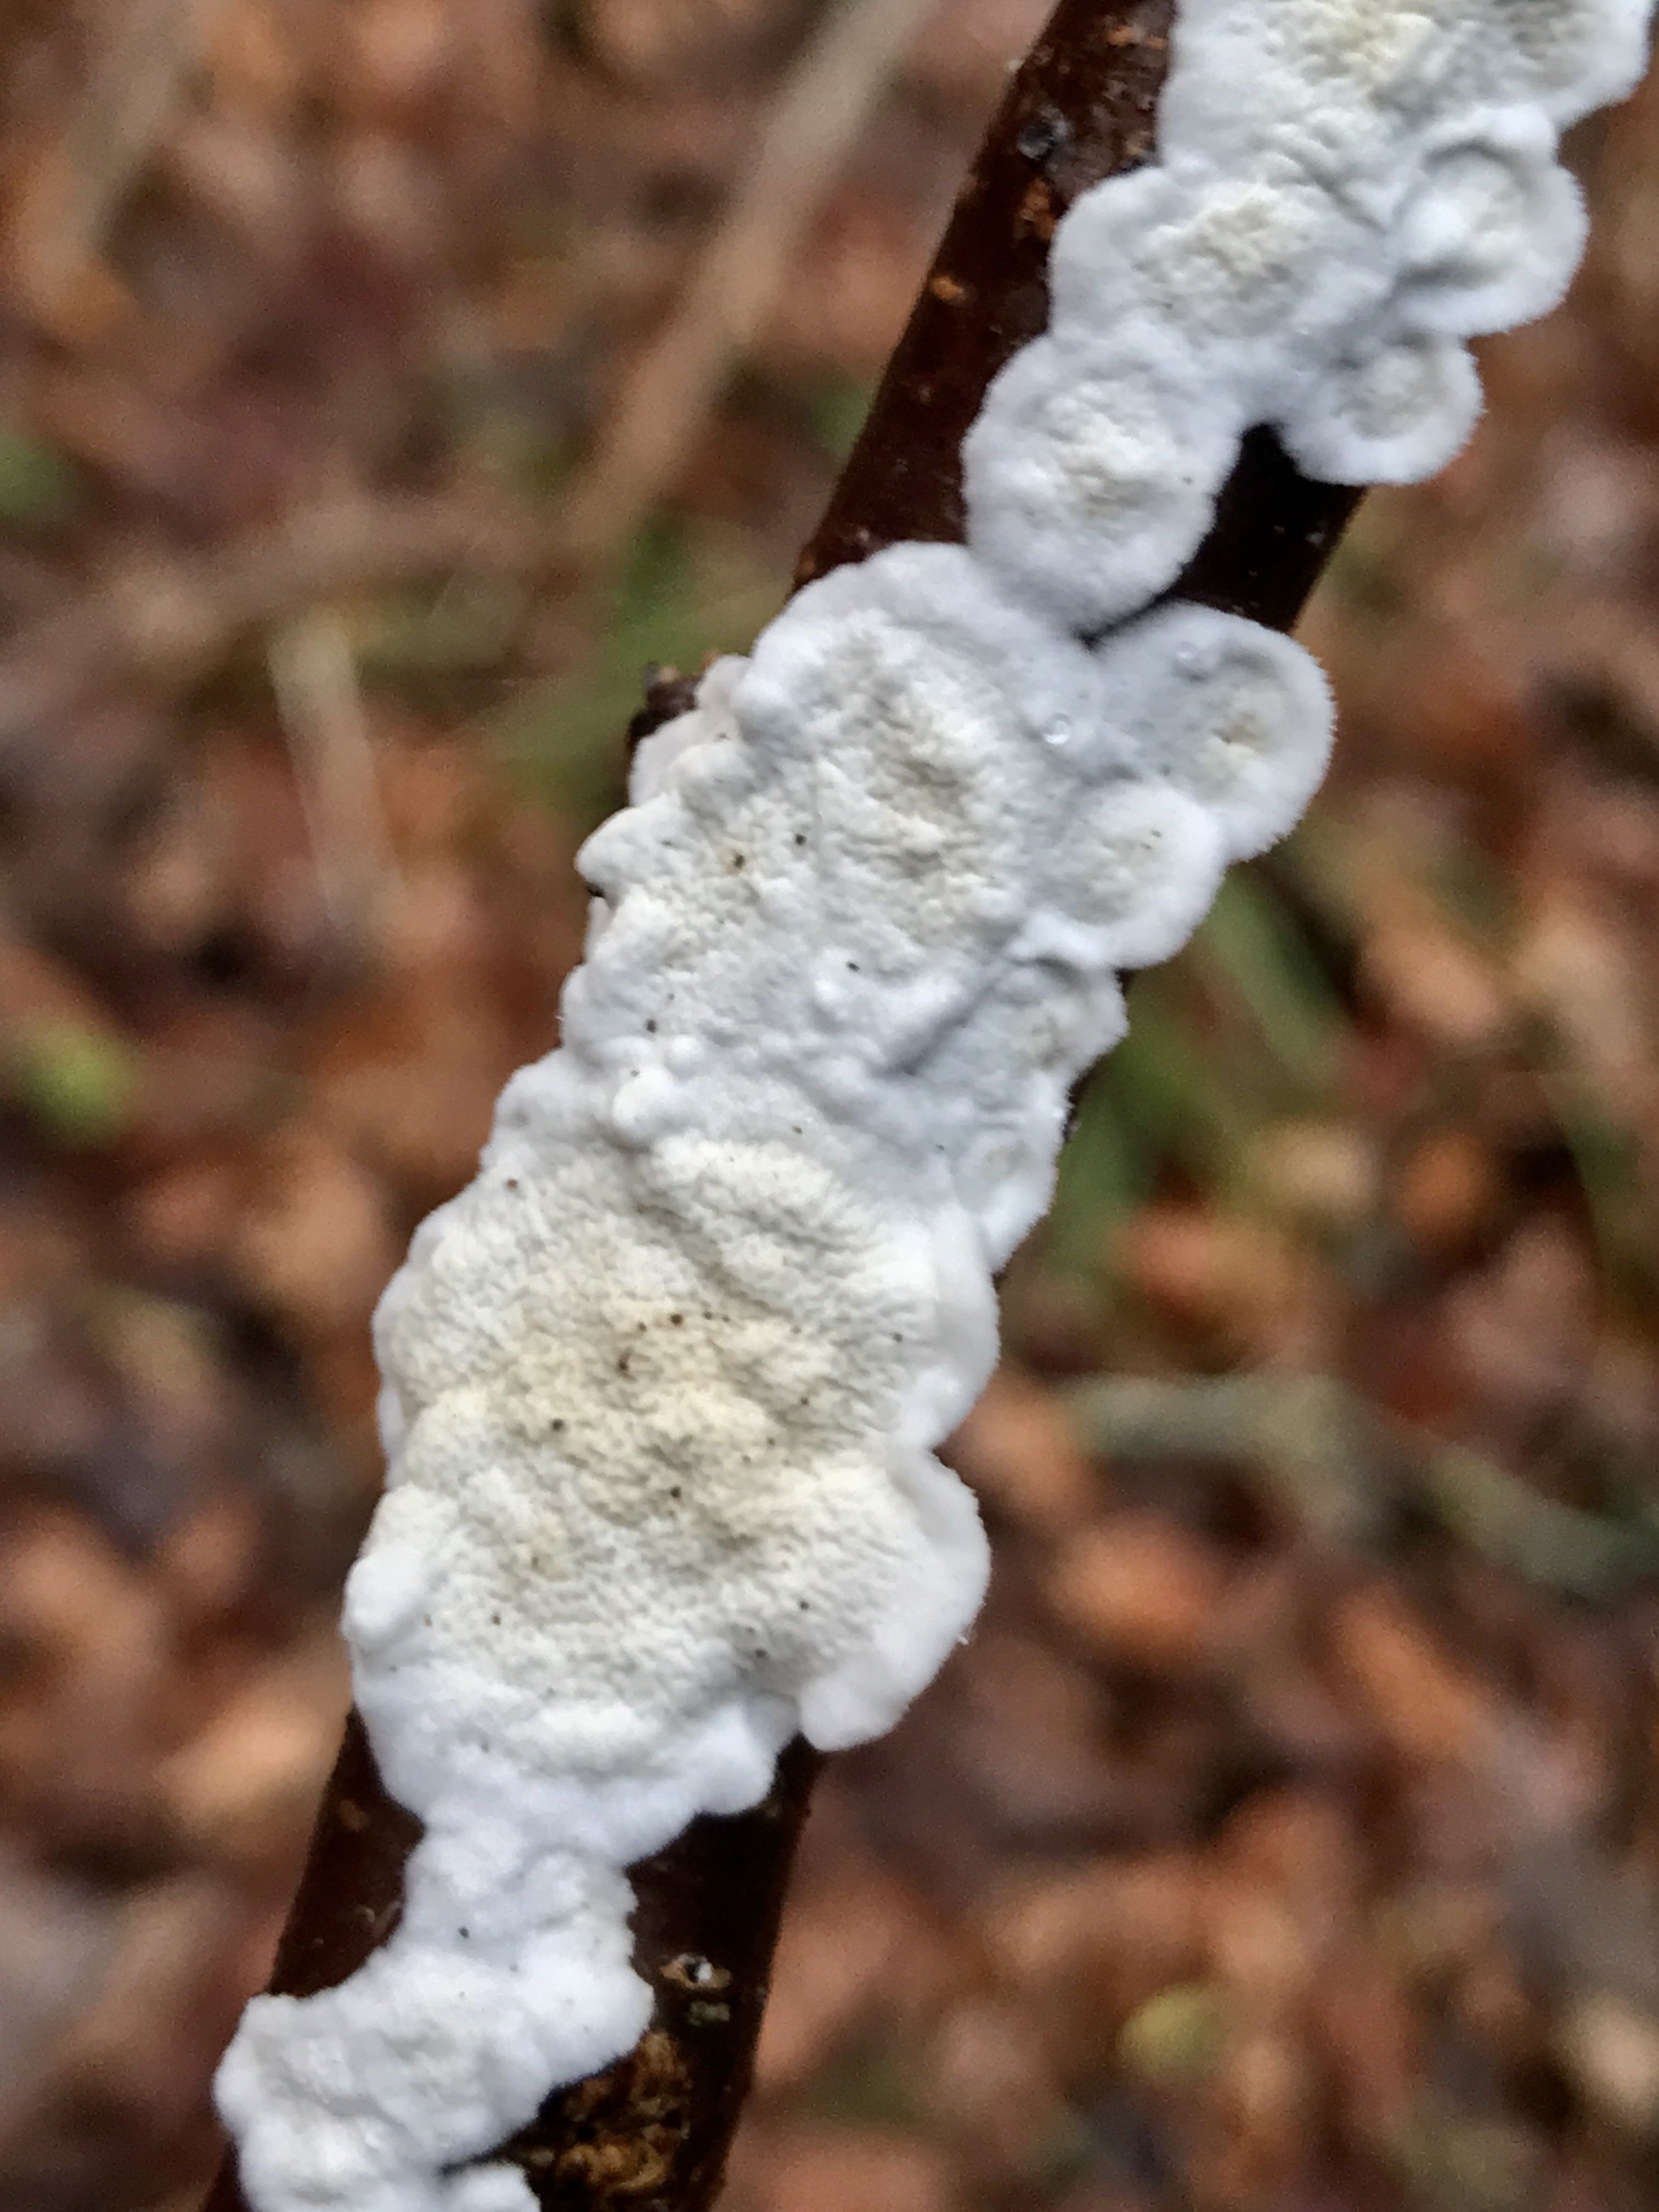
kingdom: Fungi
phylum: Basidiomycota
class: Agaricomycetes
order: Polyporales
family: Irpicaceae
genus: Byssomerulius
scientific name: Byssomerulius corium
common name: læder-åresvamp
